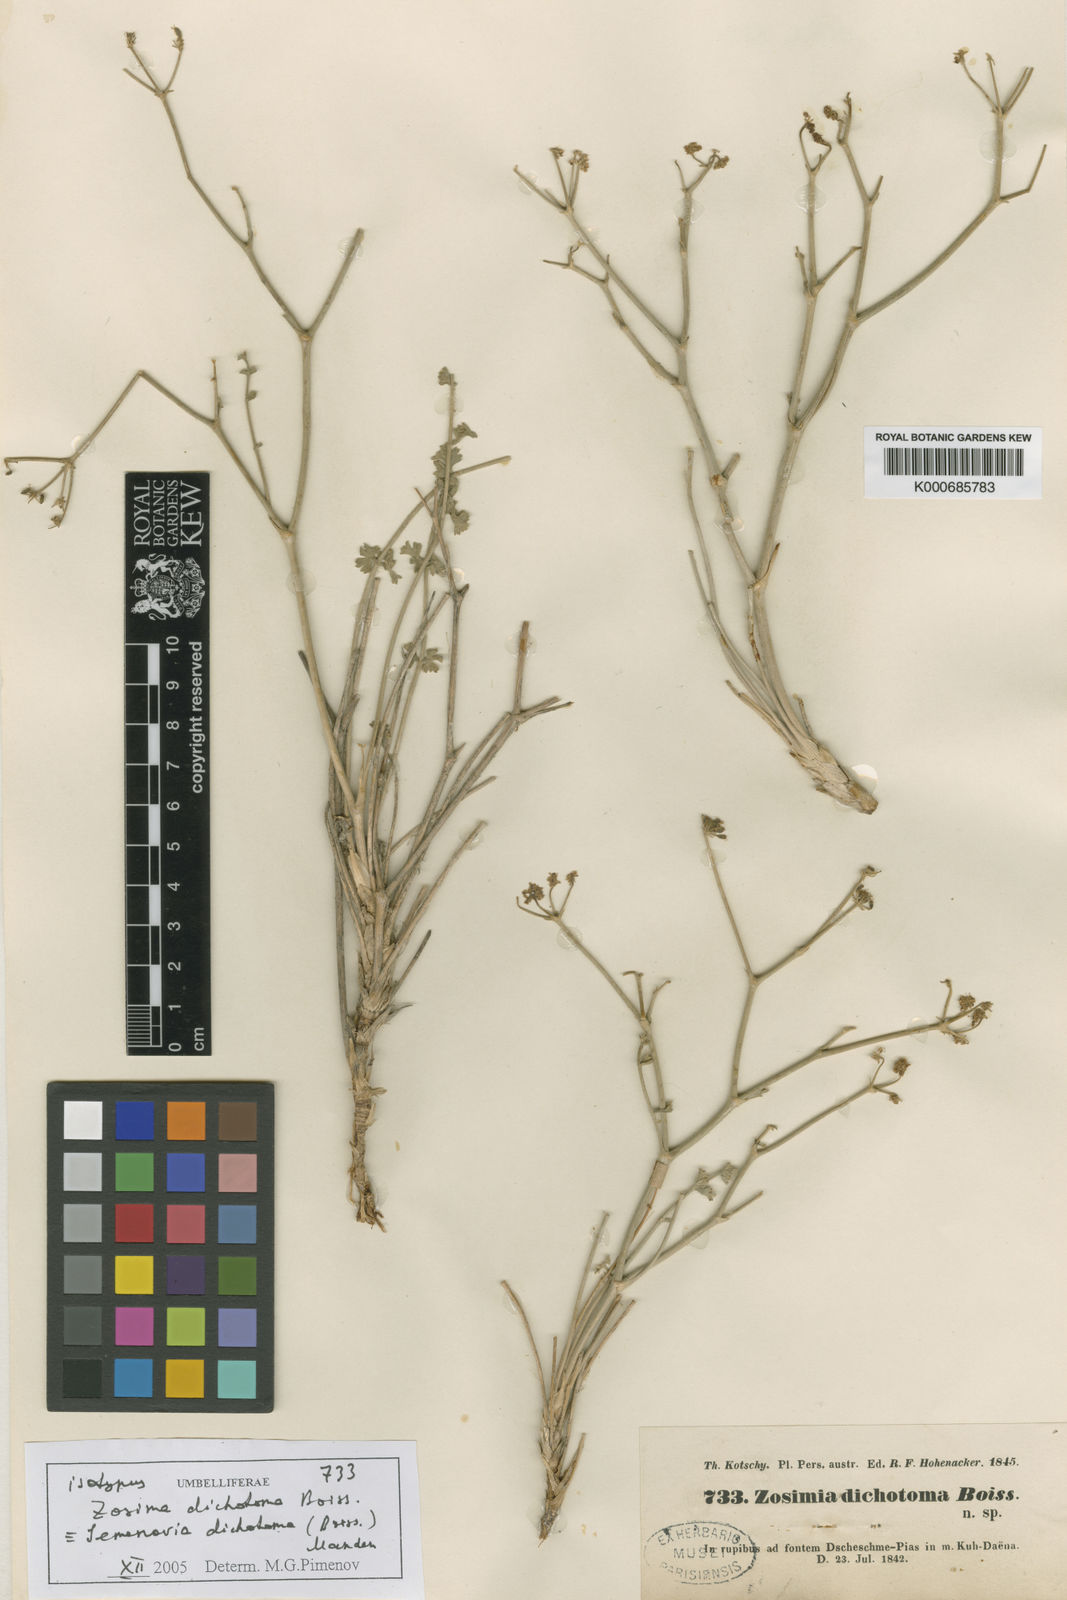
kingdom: Plantae
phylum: Tracheophyta
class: Magnoliopsida
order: Apiales
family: Apiaceae
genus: Semenovia
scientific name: Semenovia dichotoma
